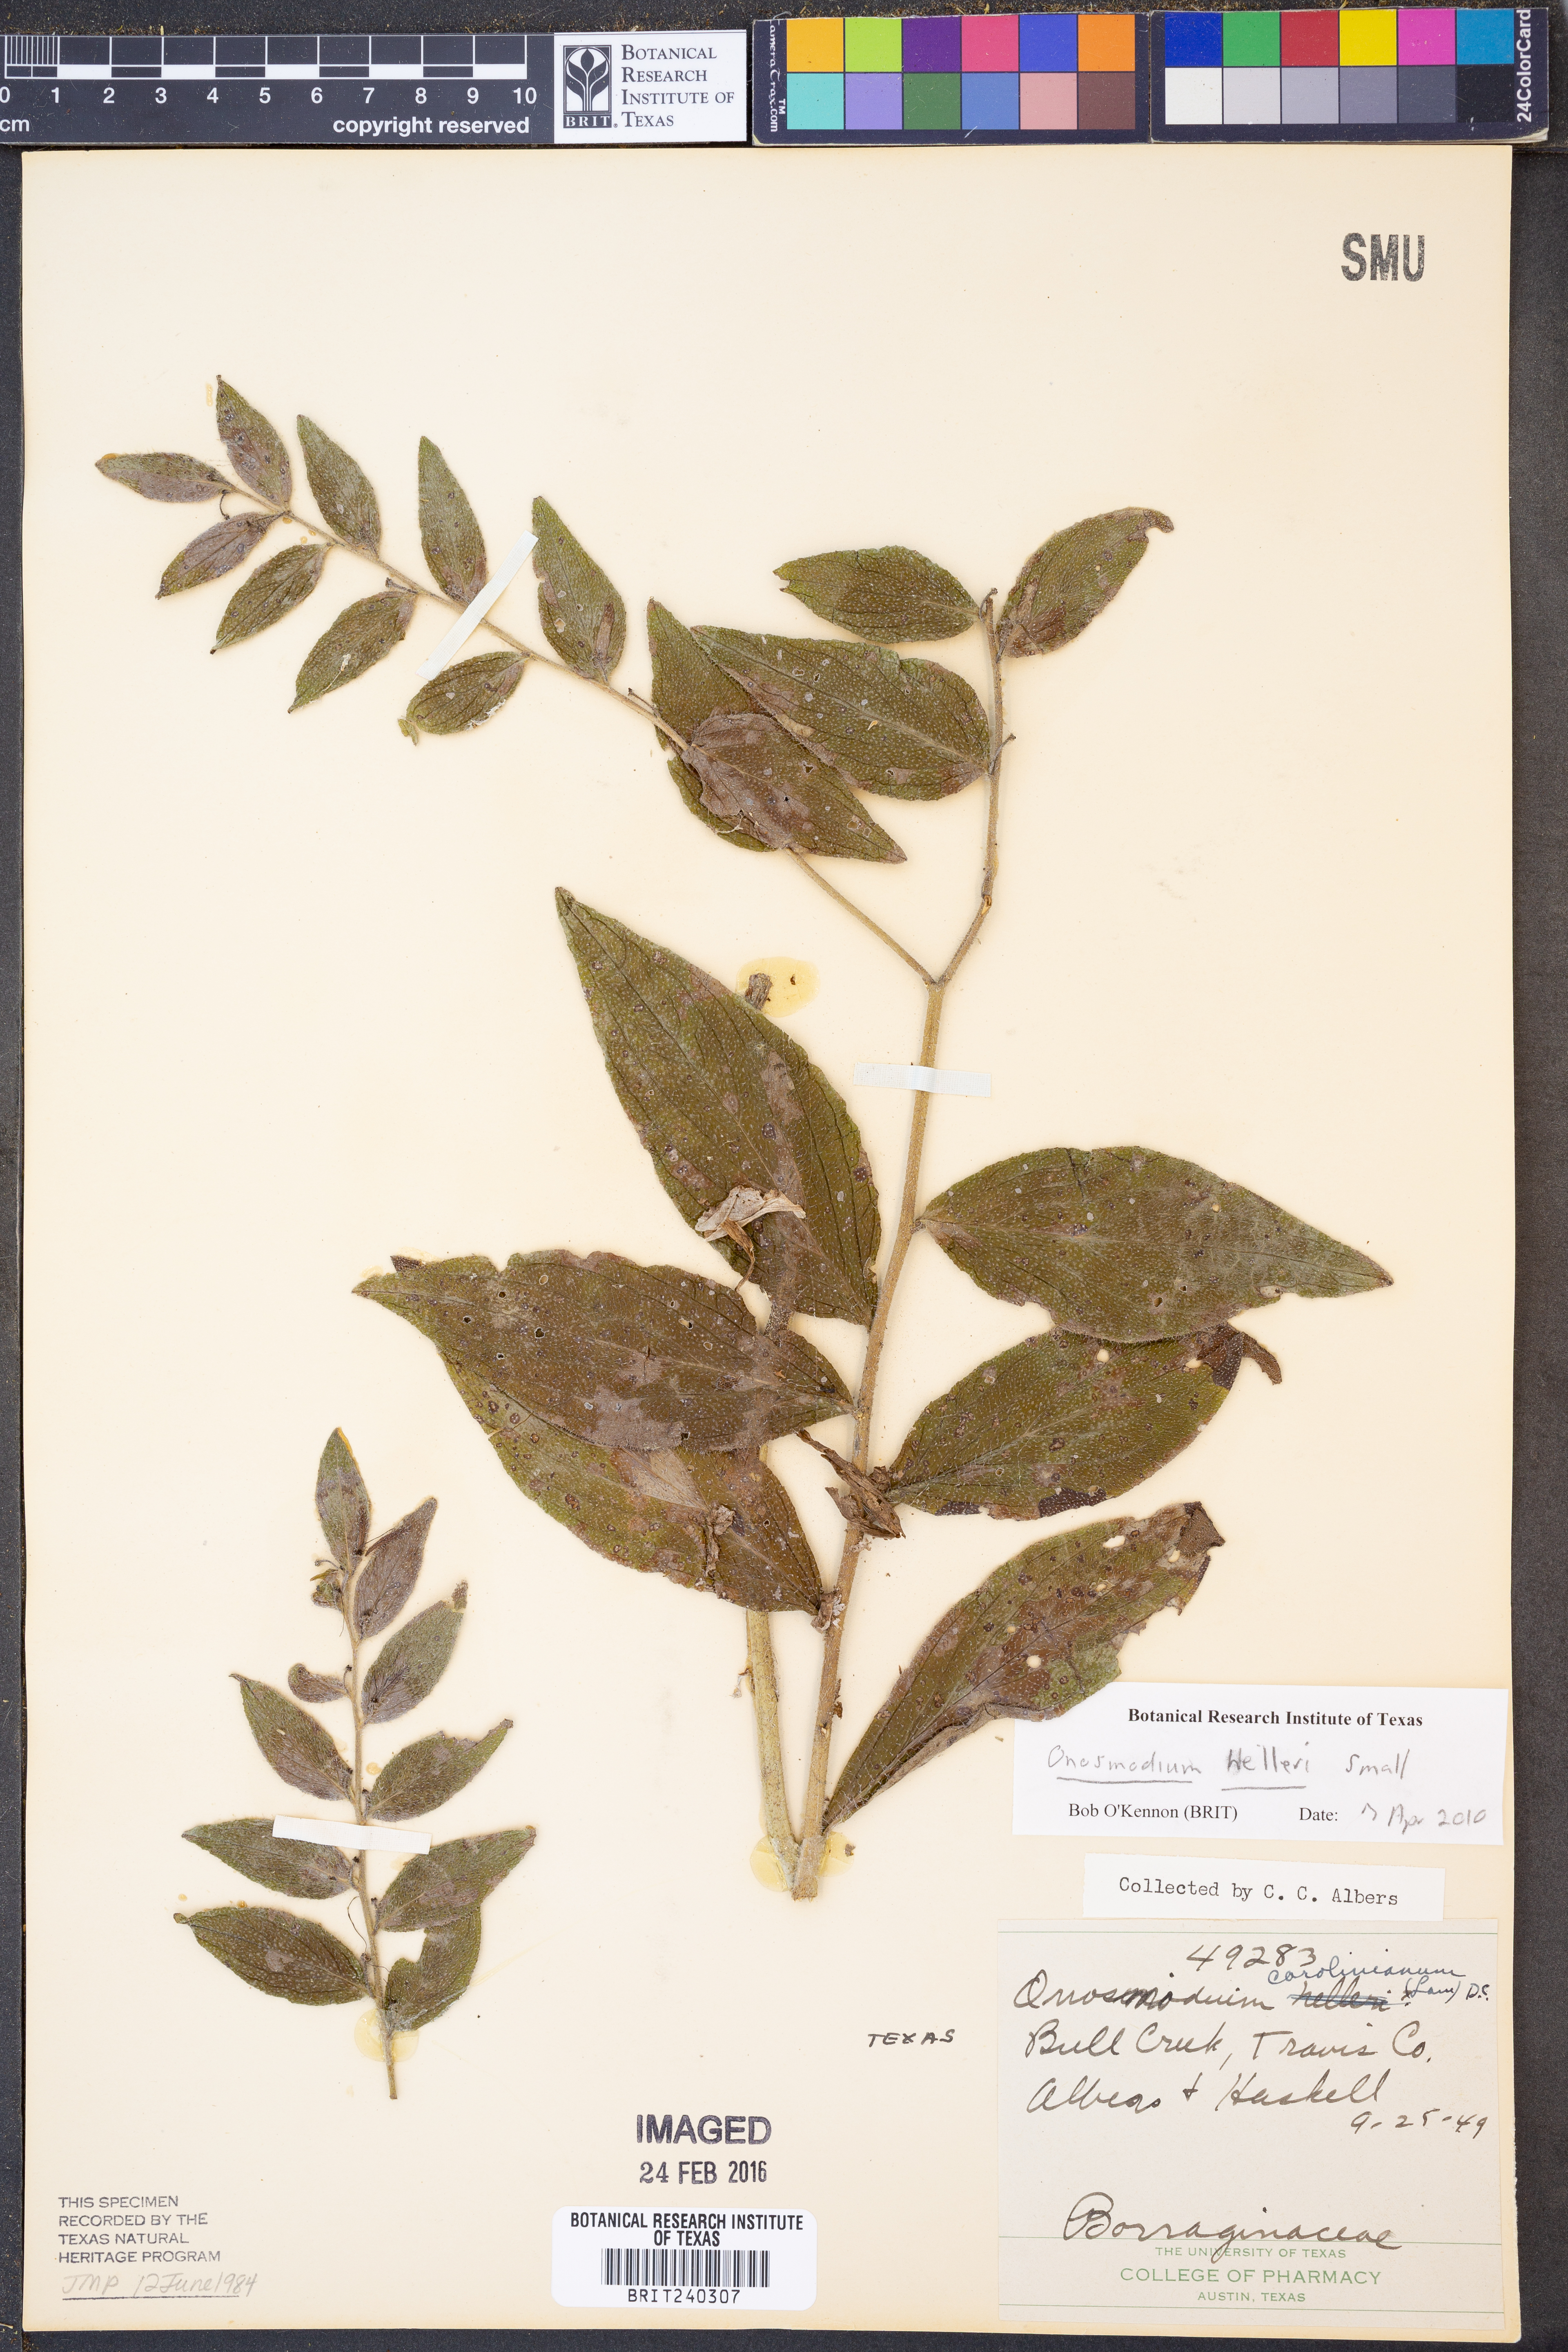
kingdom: Plantae
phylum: Tracheophyta
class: Magnoliopsida
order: Boraginales
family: Boraginaceae
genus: Lithospermum
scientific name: Lithospermum helleri
